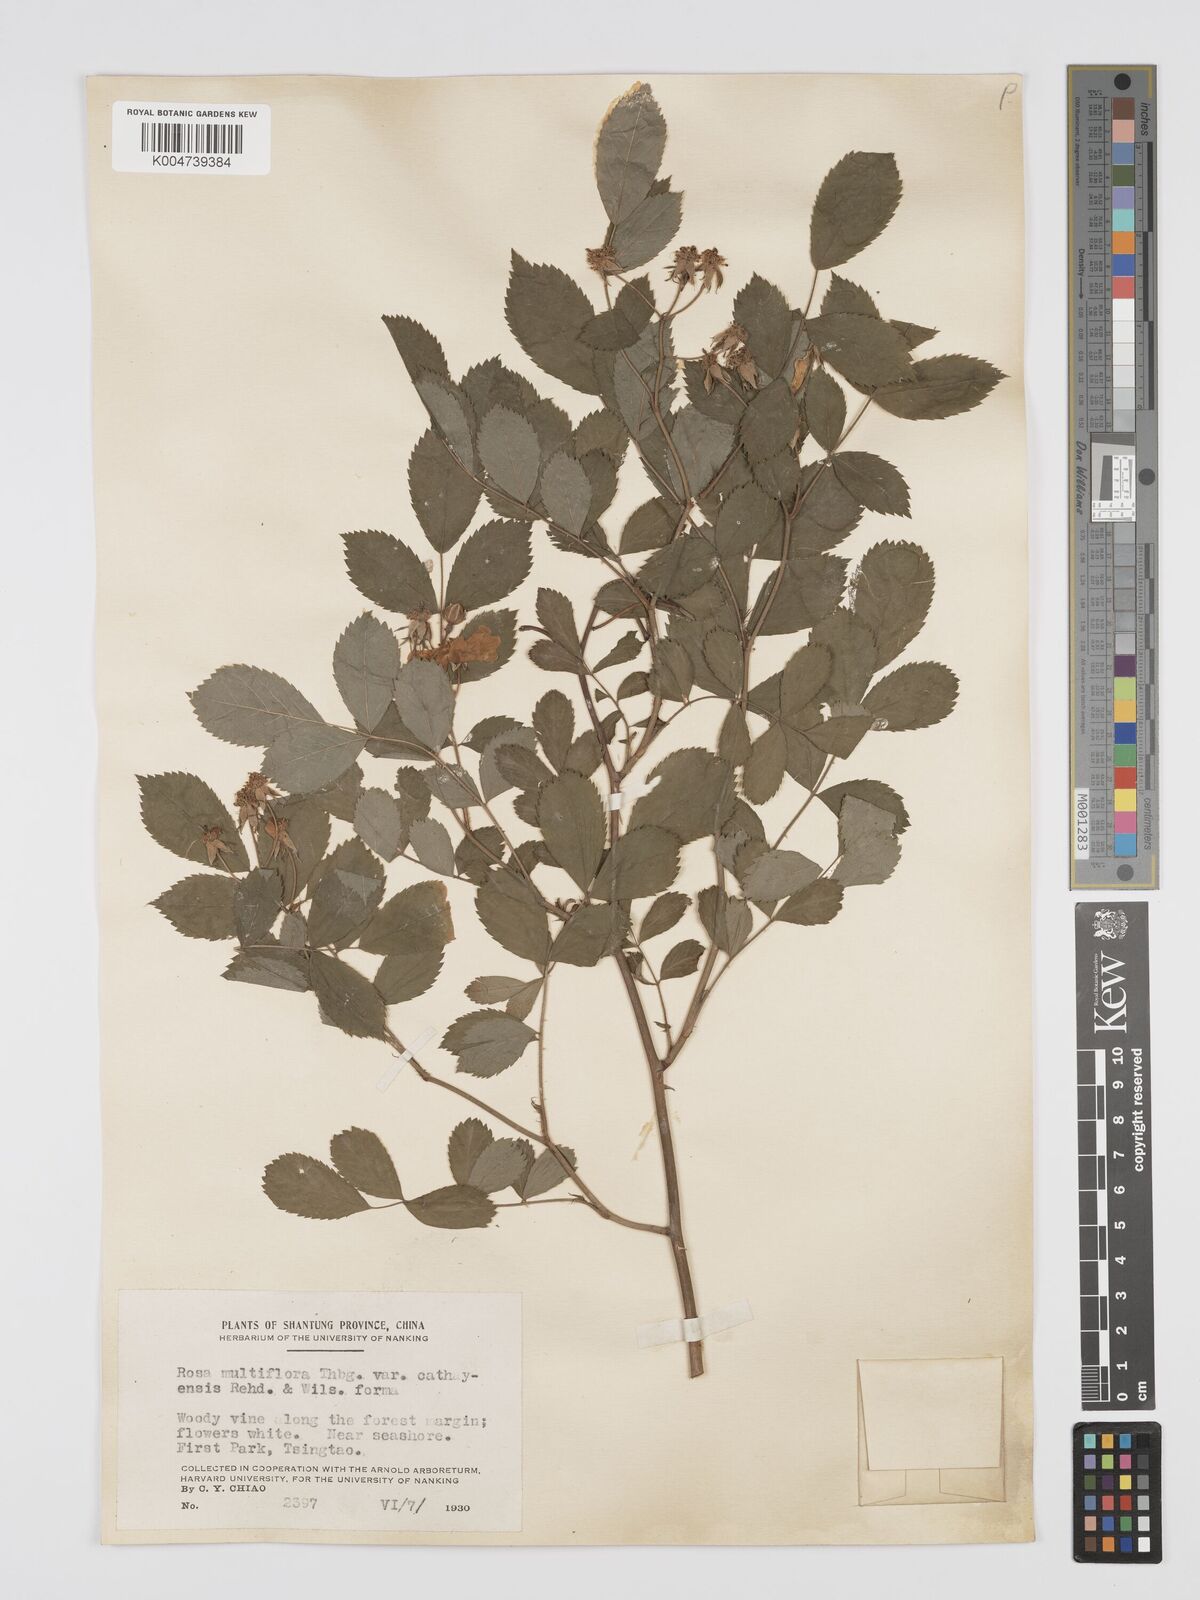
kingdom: Plantae
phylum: Tracheophyta
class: Magnoliopsida
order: Rosales
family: Rosaceae
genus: Rosa
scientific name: Rosa multiflora
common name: Multiflora rose
